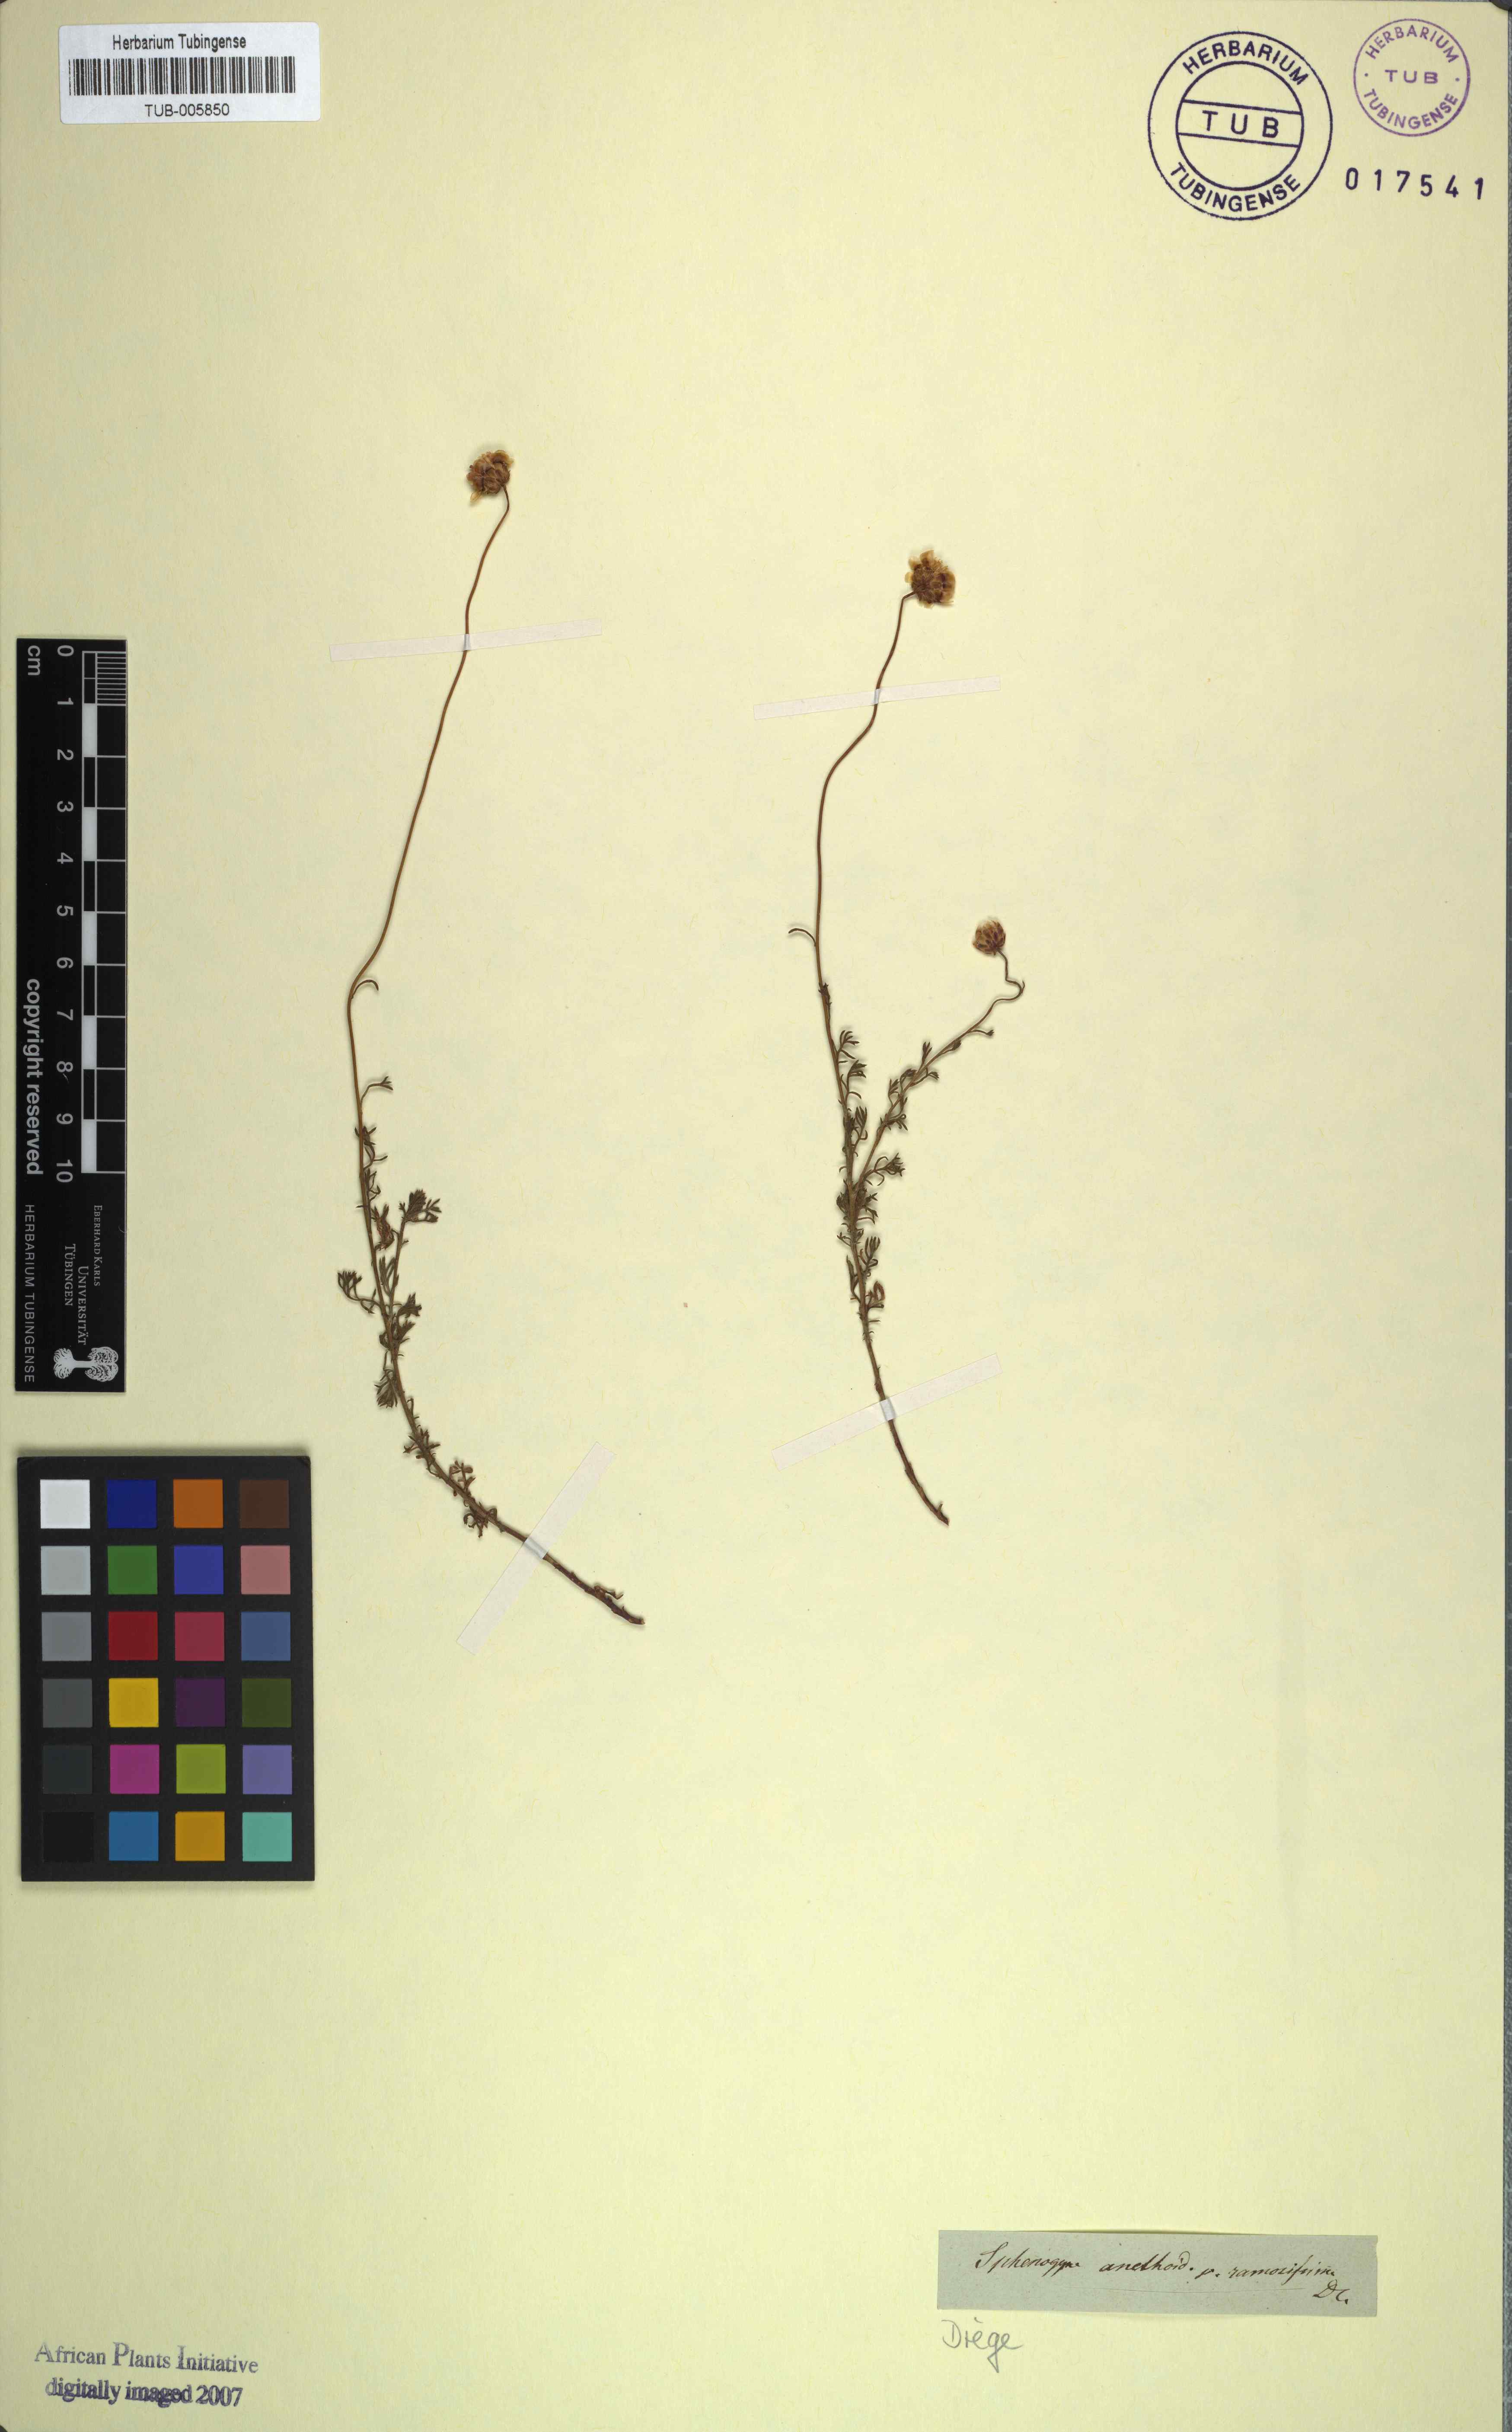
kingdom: Plantae
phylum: Tracheophyta
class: Magnoliopsida
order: Asterales
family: Asteraceae
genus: Ursinia
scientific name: Ursinia anethoides
